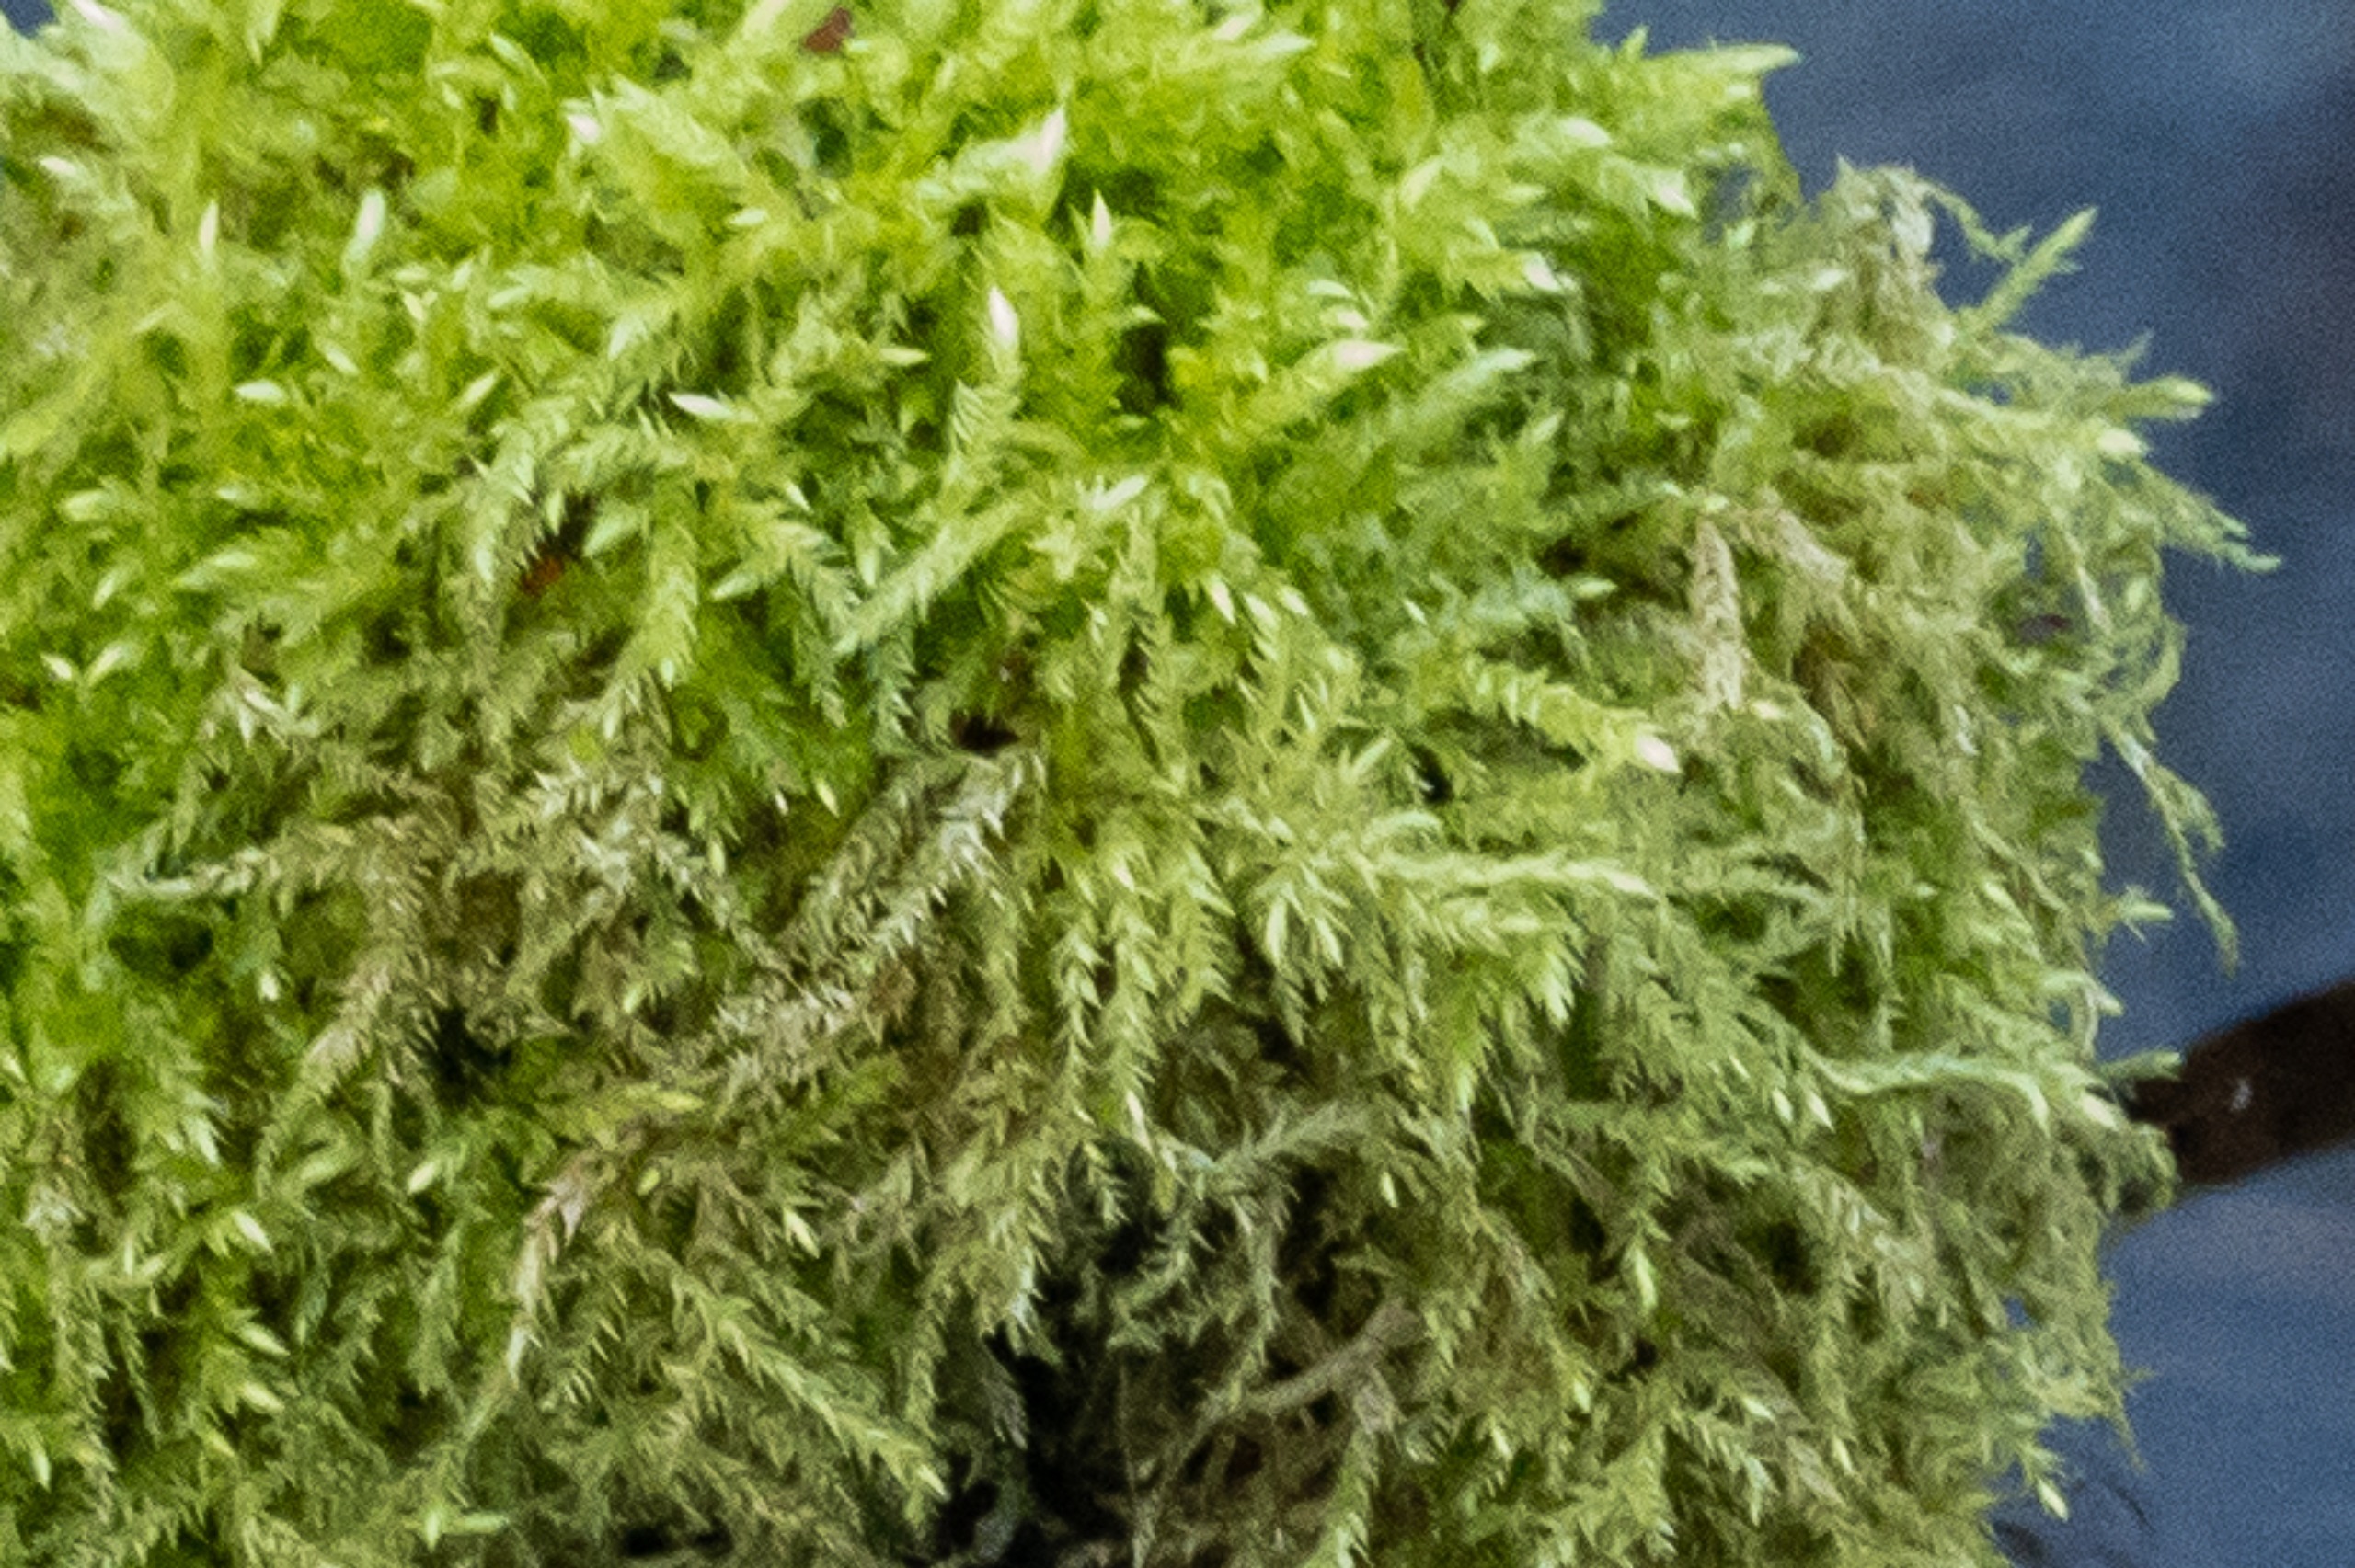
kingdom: Plantae
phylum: Bryophyta
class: Bryopsida
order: Hypnales
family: Brachytheciaceae
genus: Brachythecium
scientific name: Brachythecium
